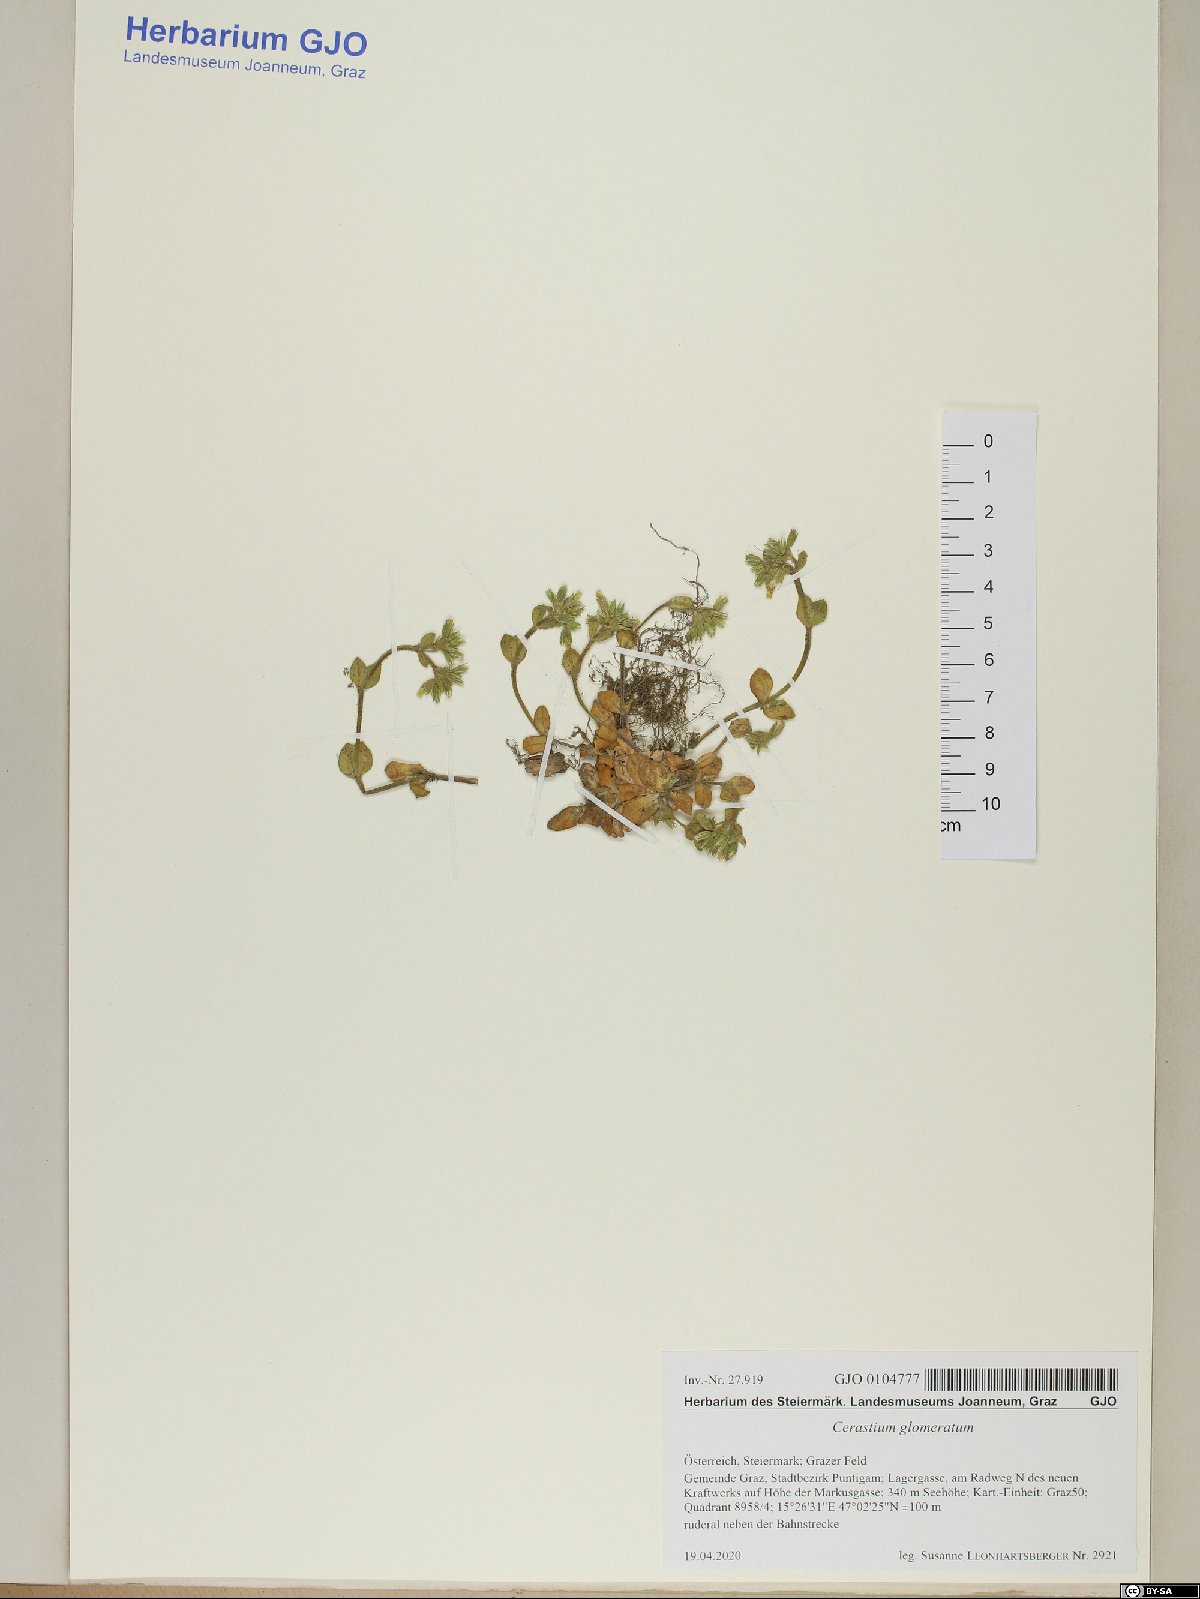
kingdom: Plantae
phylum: Tracheophyta
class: Magnoliopsida
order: Caryophyllales
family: Caryophyllaceae
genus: Cerastium
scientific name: Cerastium glomeratum
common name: Sticky chickweed
